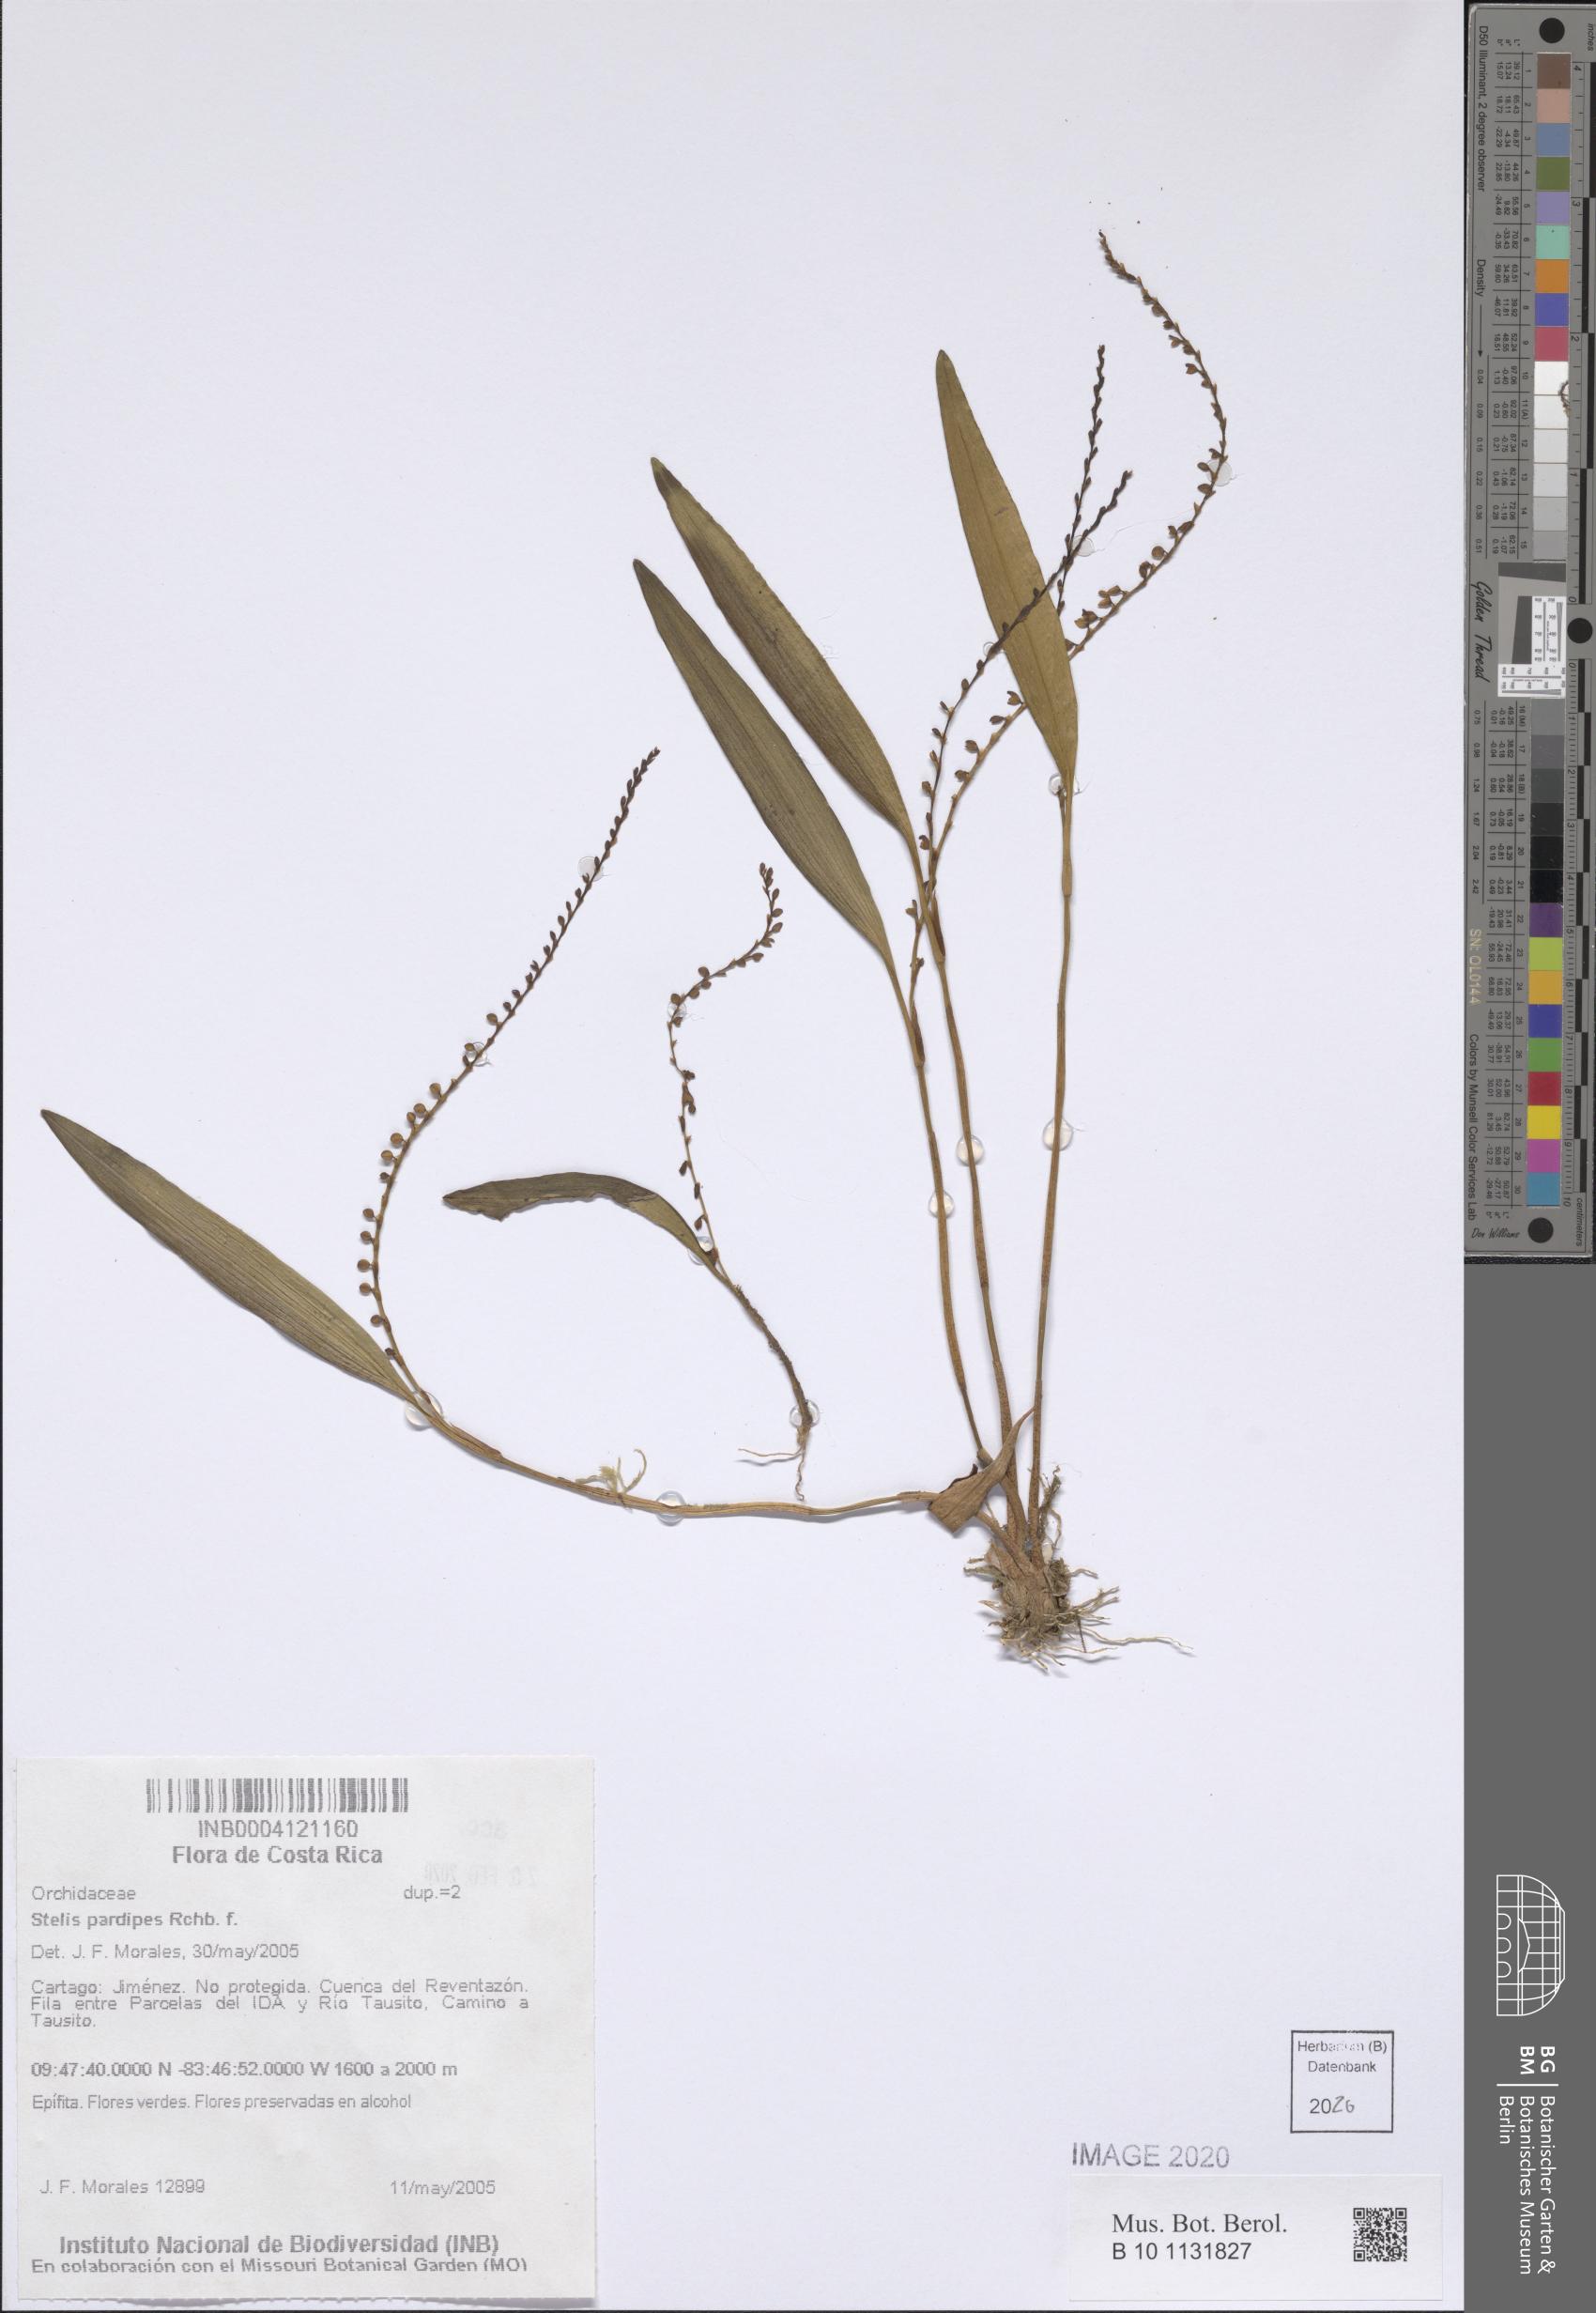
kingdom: Plantae
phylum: Tracheophyta
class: Liliopsida
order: Asparagales
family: Orchidaceae
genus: Stelis
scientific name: Stelis pardipes
